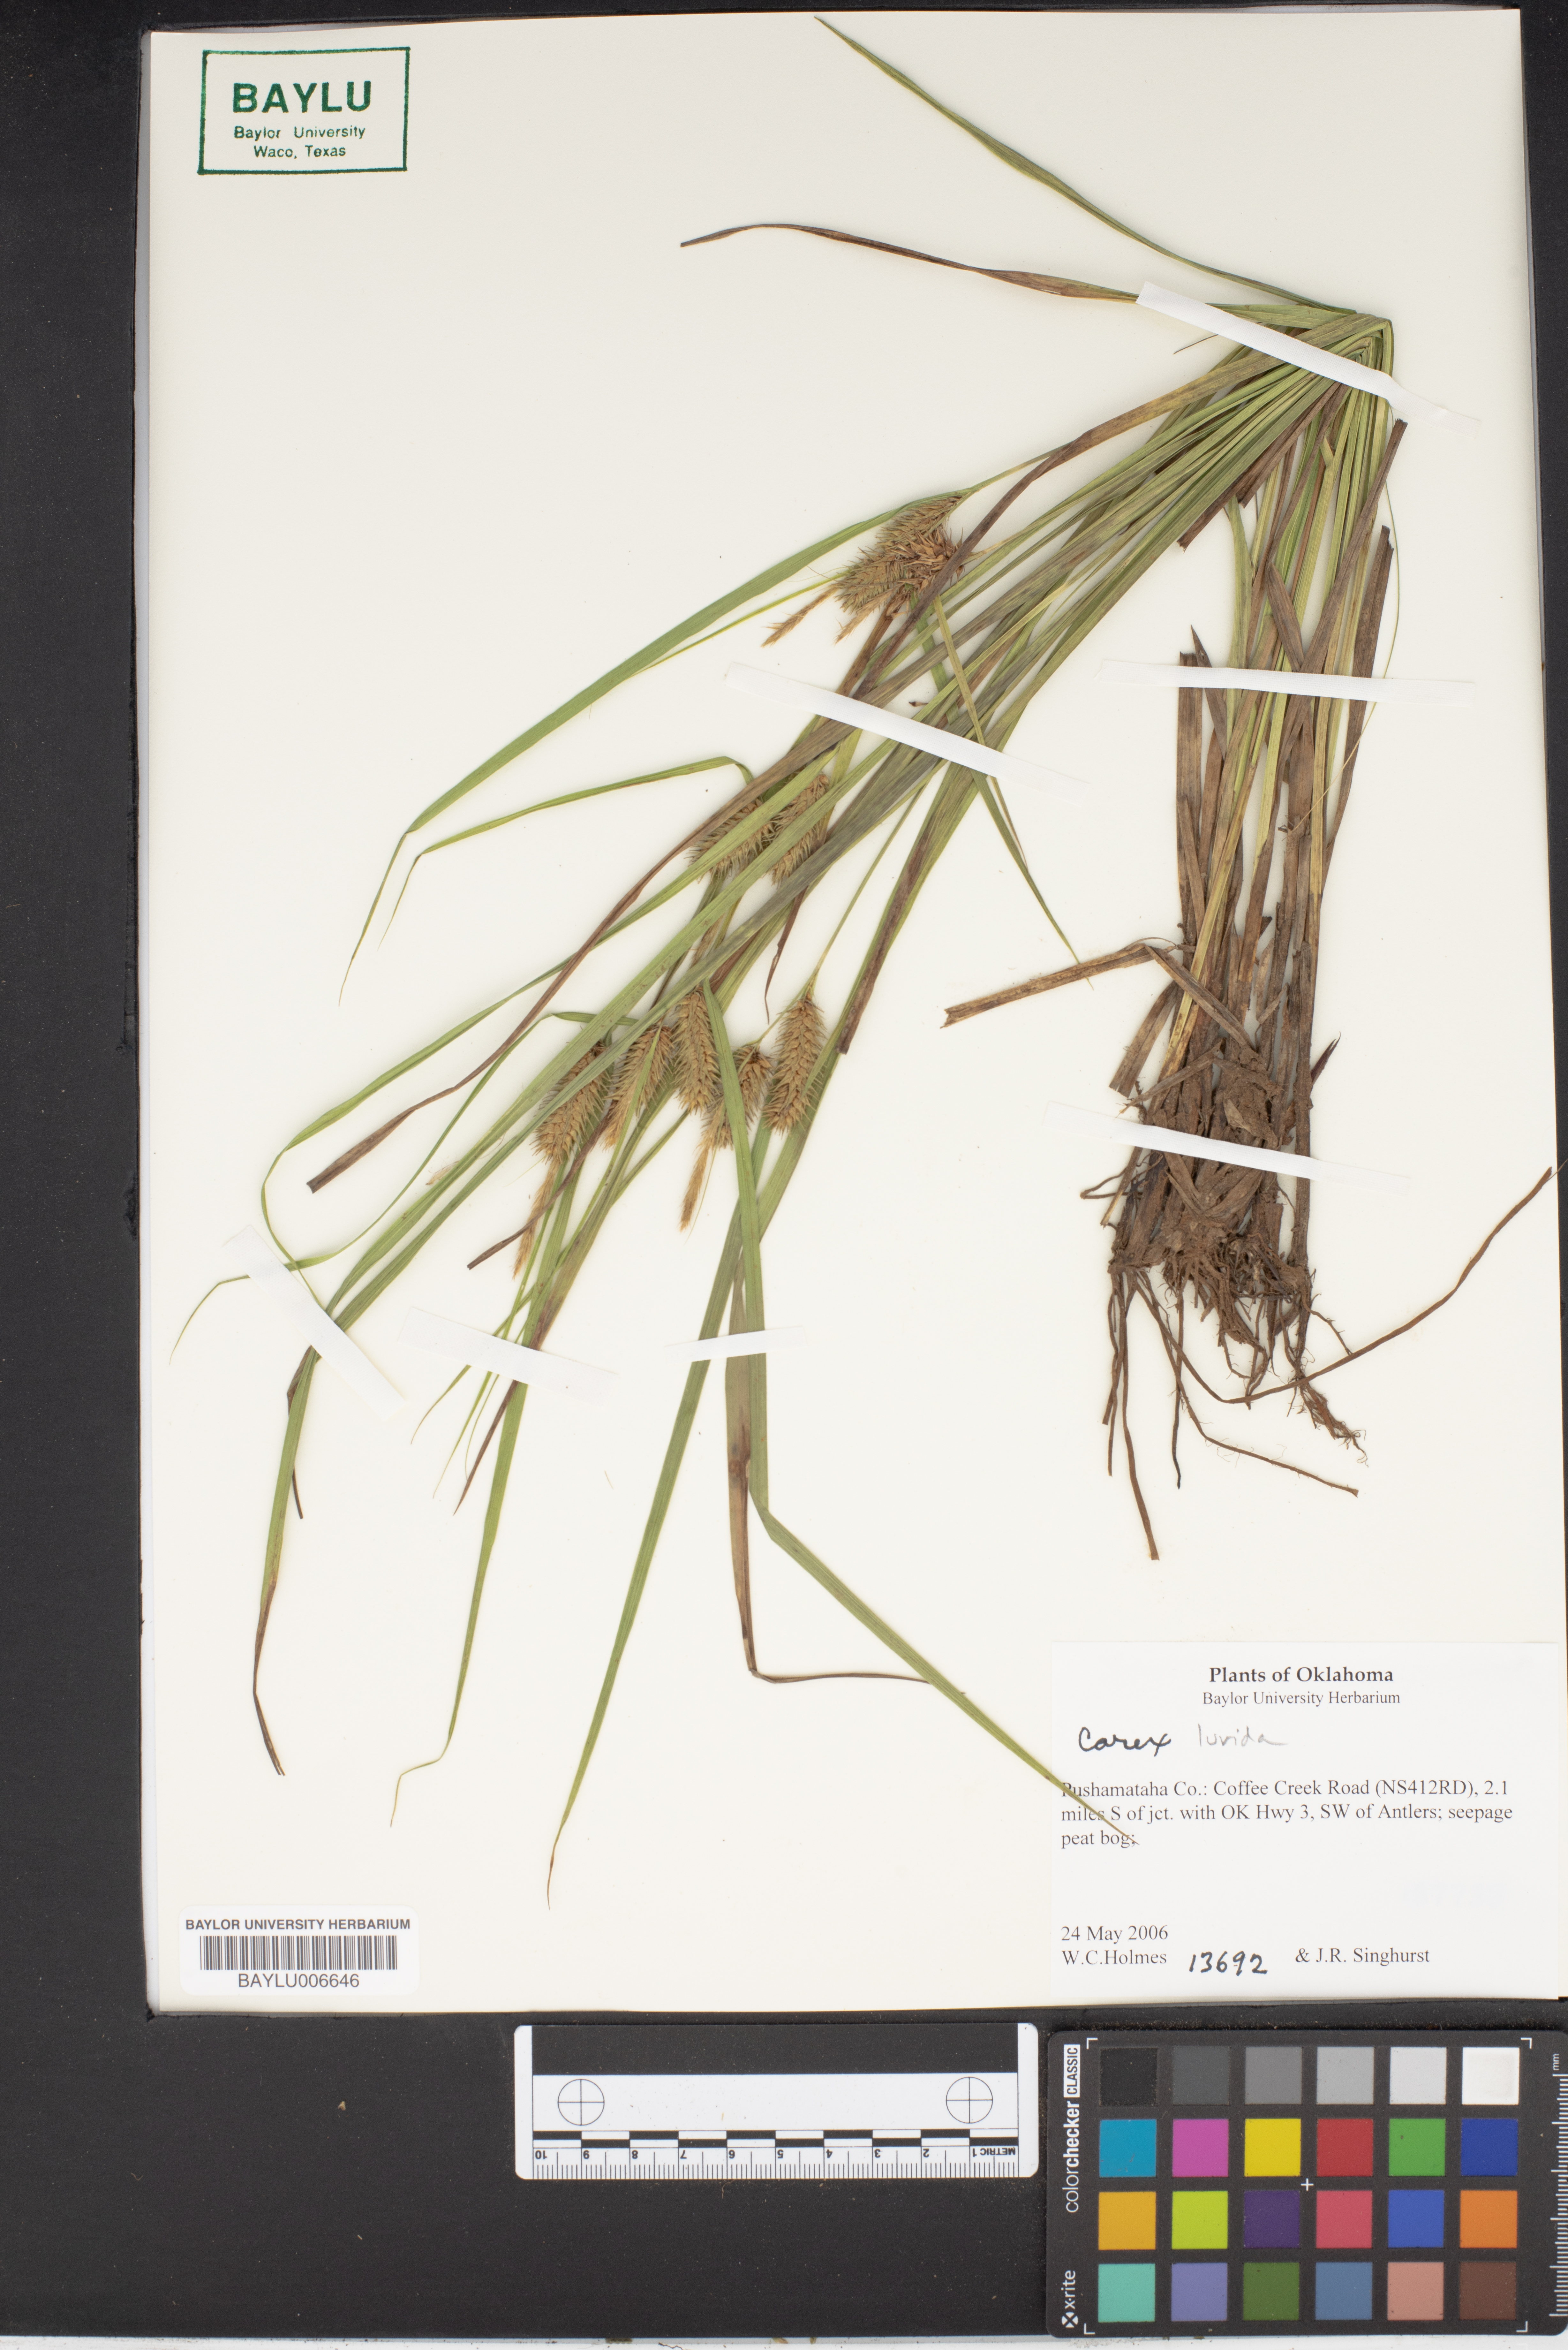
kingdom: Plantae
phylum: Tracheophyta
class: Liliopsida
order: Poales
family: Cyperaceae
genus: Carex
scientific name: Carex lurida
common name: Sallow sedge
